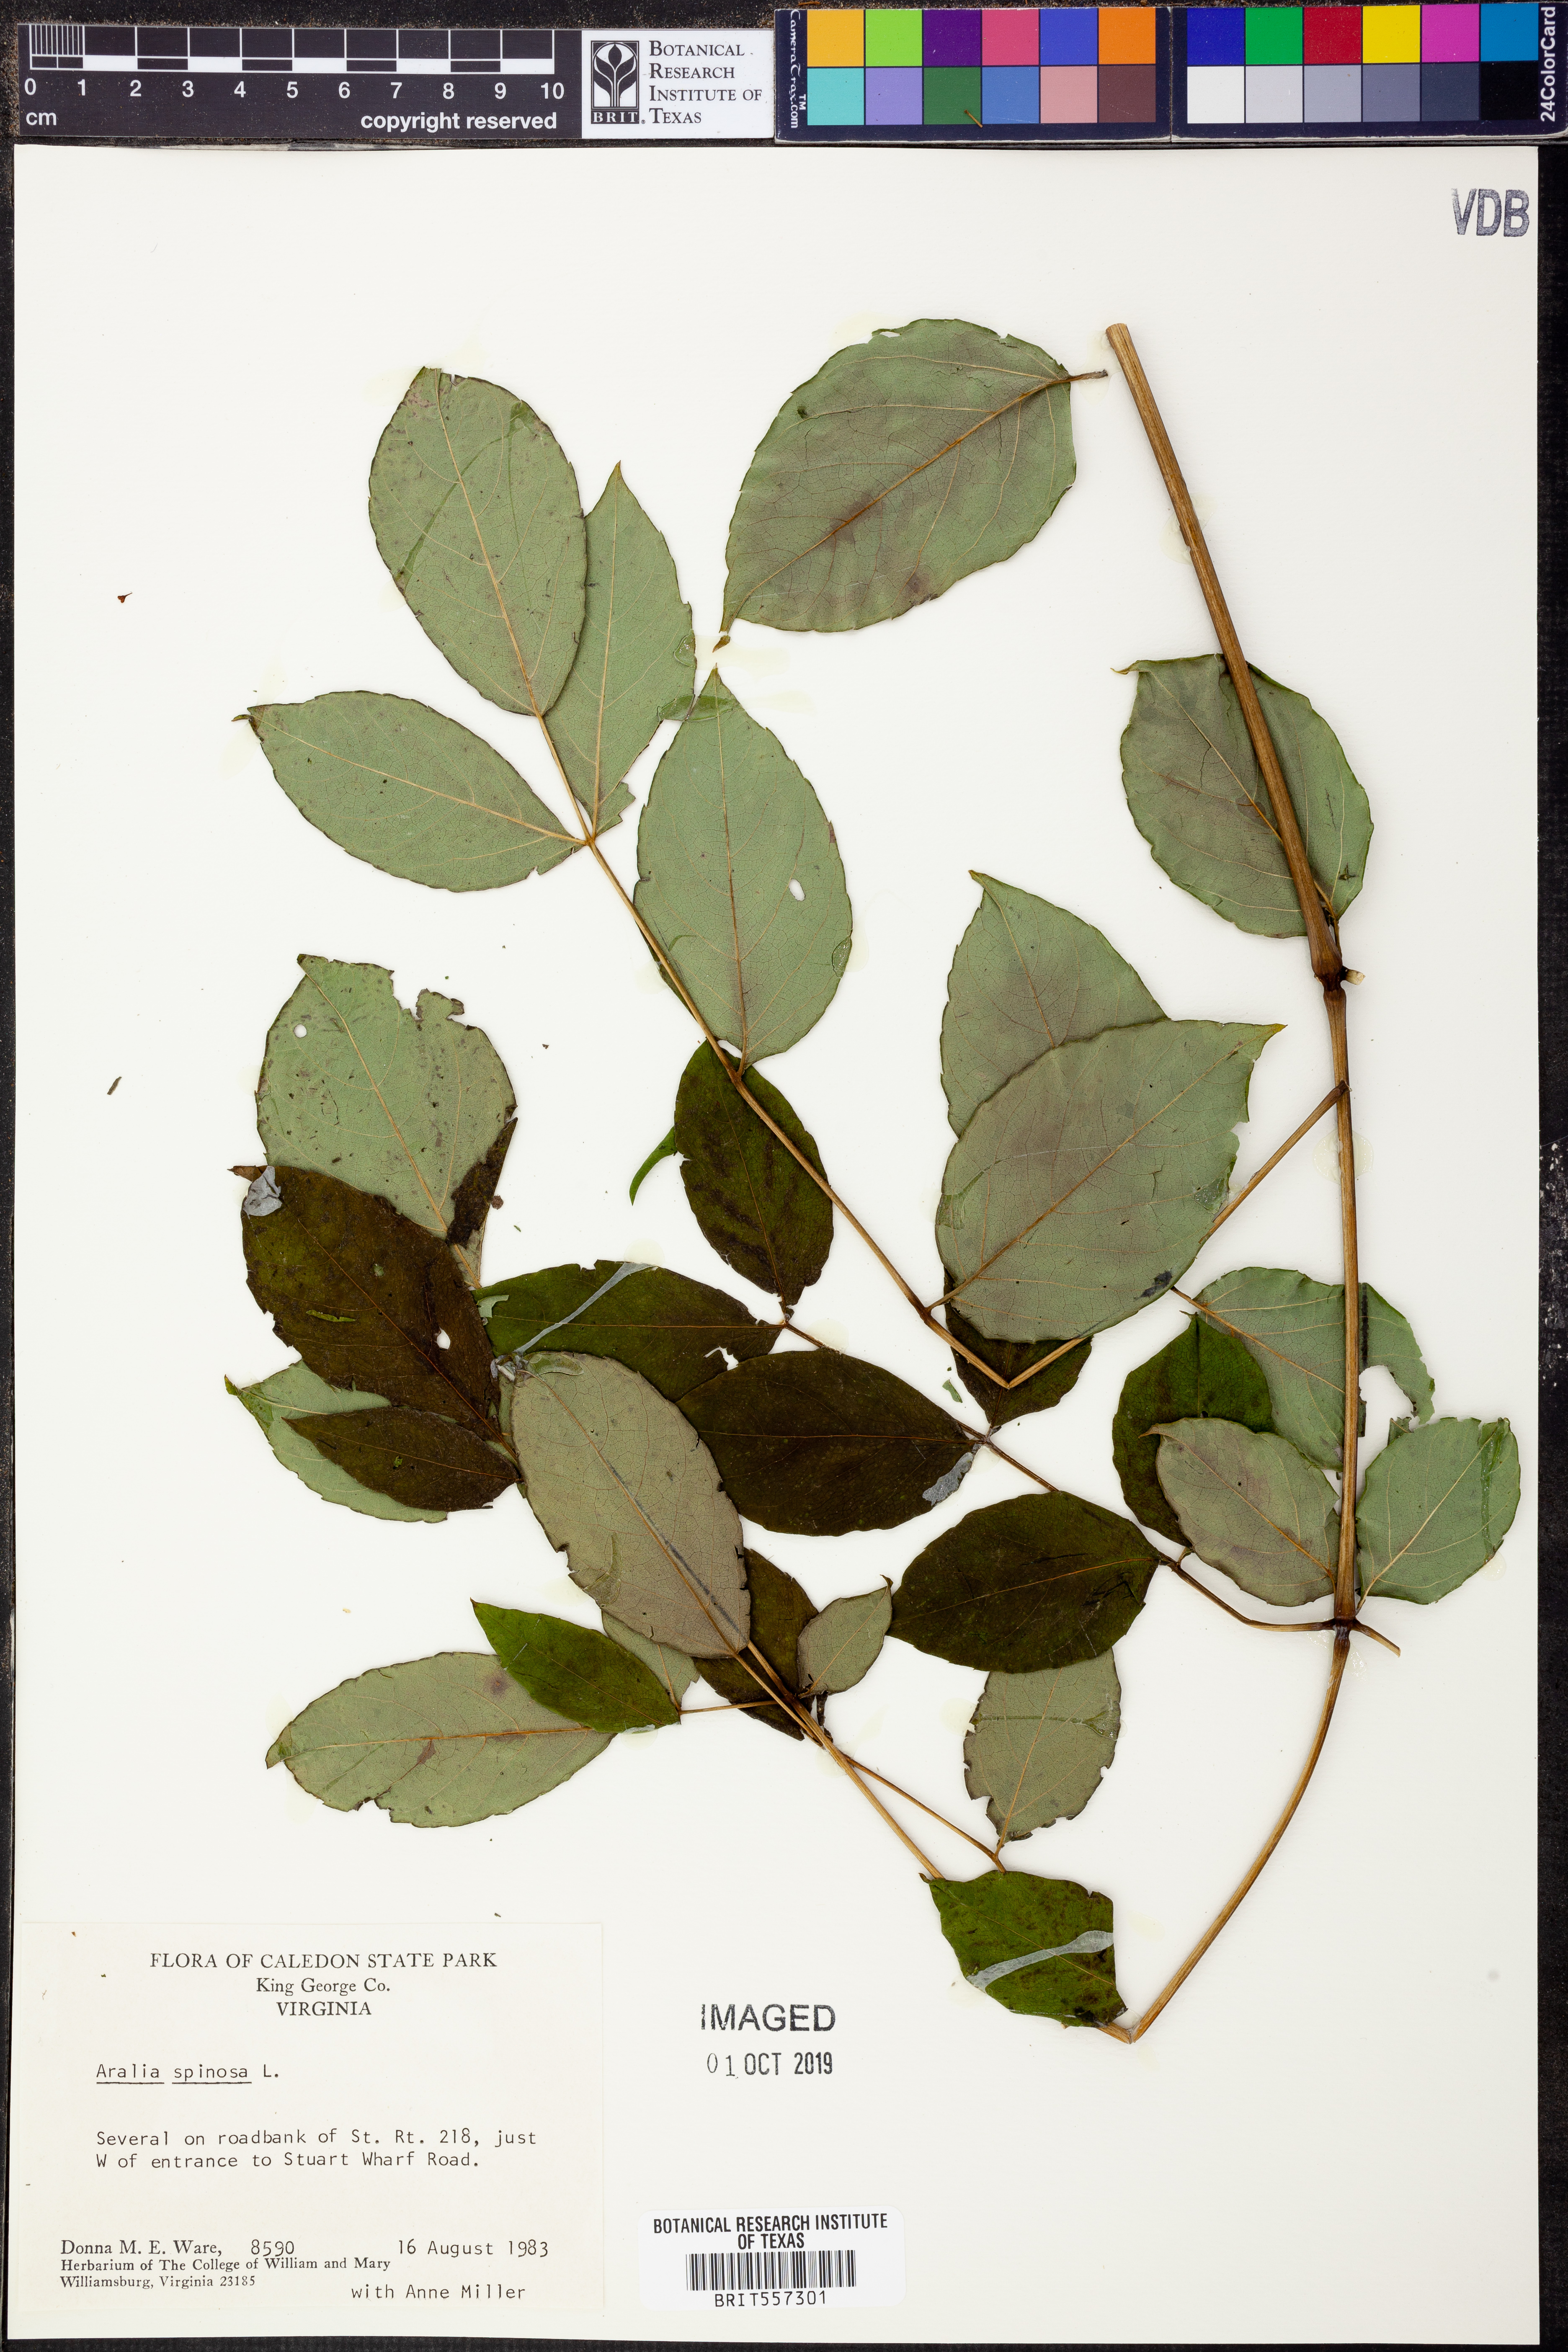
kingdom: Plantae
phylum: Tracheophyta
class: Magnoliopsida
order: Apiales
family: Araliaceae
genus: Aralia
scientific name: Aralia spinosa
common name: Hercules'-club
